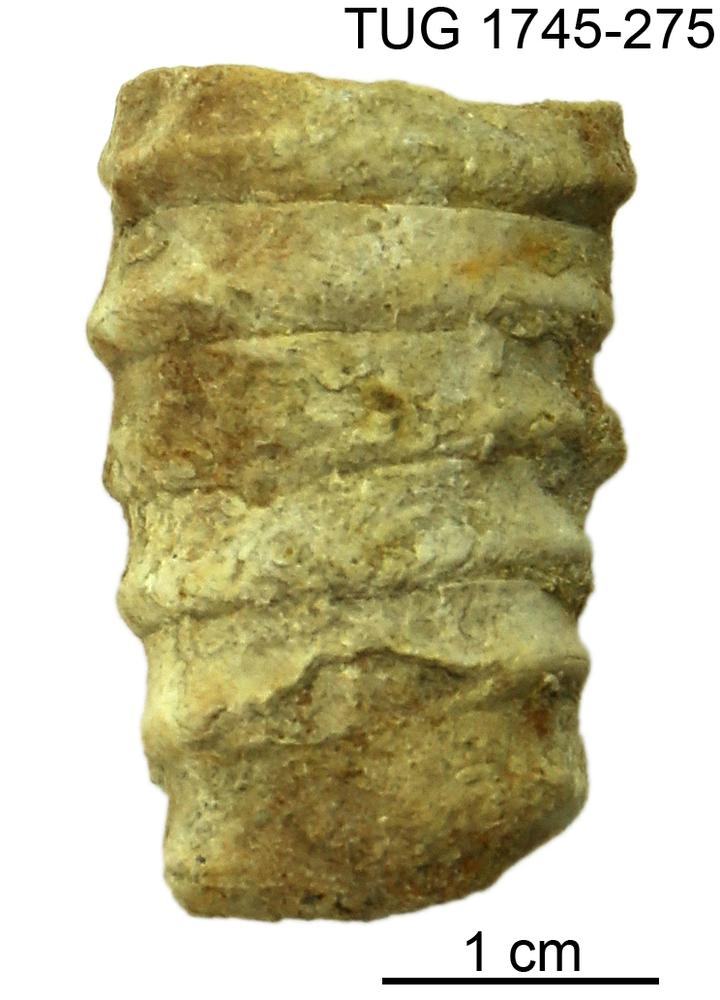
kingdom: Animalia
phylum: Mollusca
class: Cephalopoda
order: Nautilida
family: Nautilidae
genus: Dawsonoceras
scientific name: Dawsonoceras
